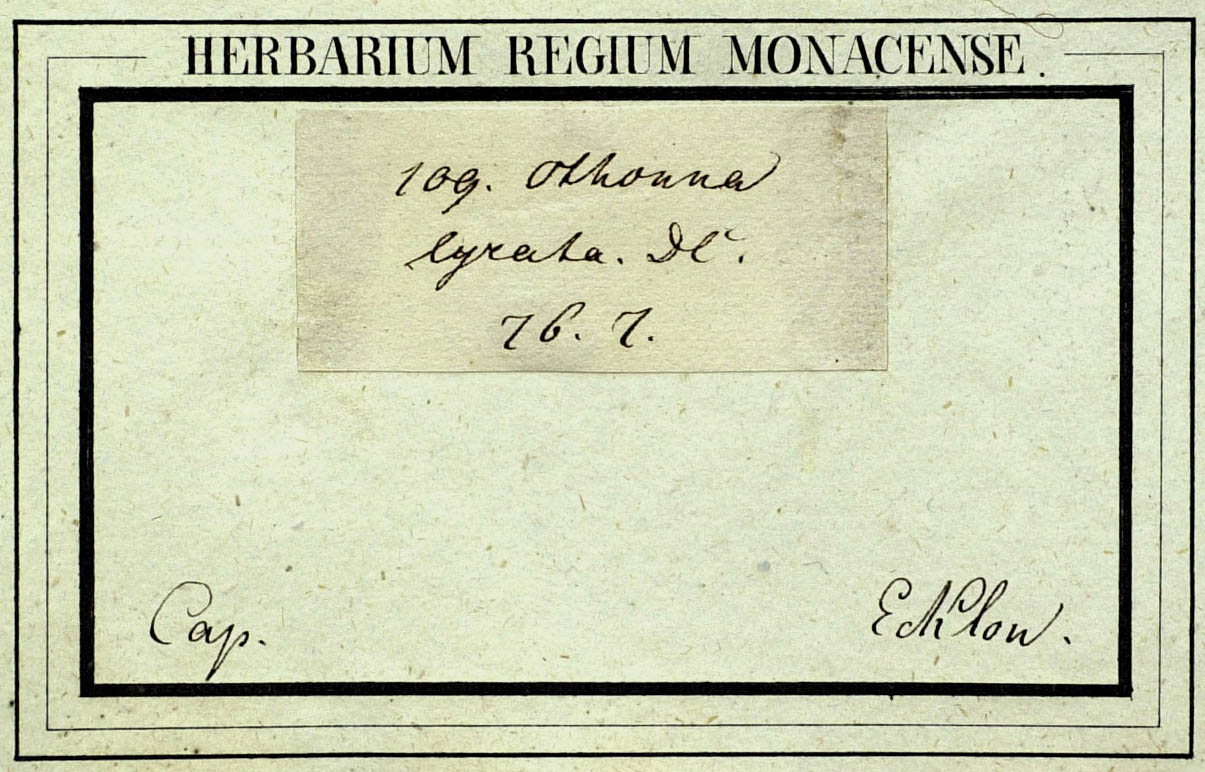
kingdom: Plantae
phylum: Tracheophyta
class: Magnoliopsida
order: Asterales
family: Asteraceae
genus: Othonna
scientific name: Othonna lyrata
